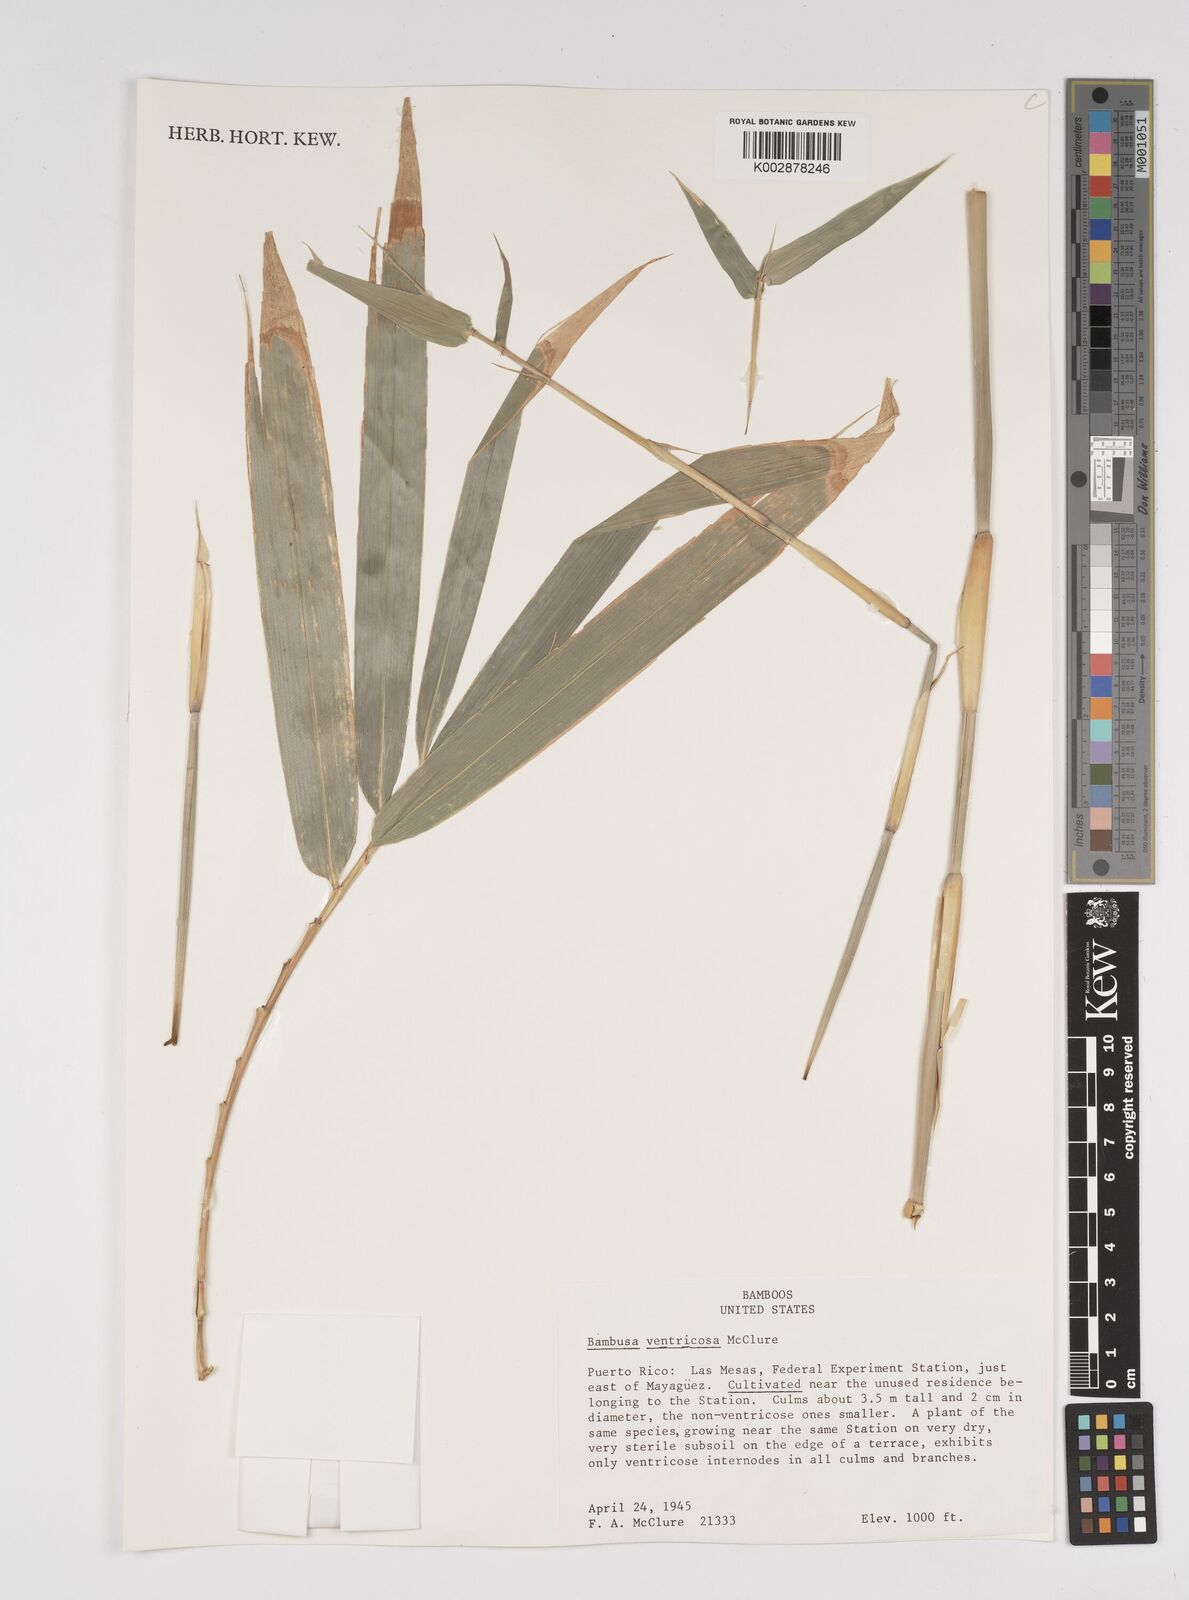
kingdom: Plantae
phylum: Tracheophyta
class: Liliopsida
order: Poales
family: Poaceae
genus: Bambusa
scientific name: Bambusa ventricosa
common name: Buddha bamboo
